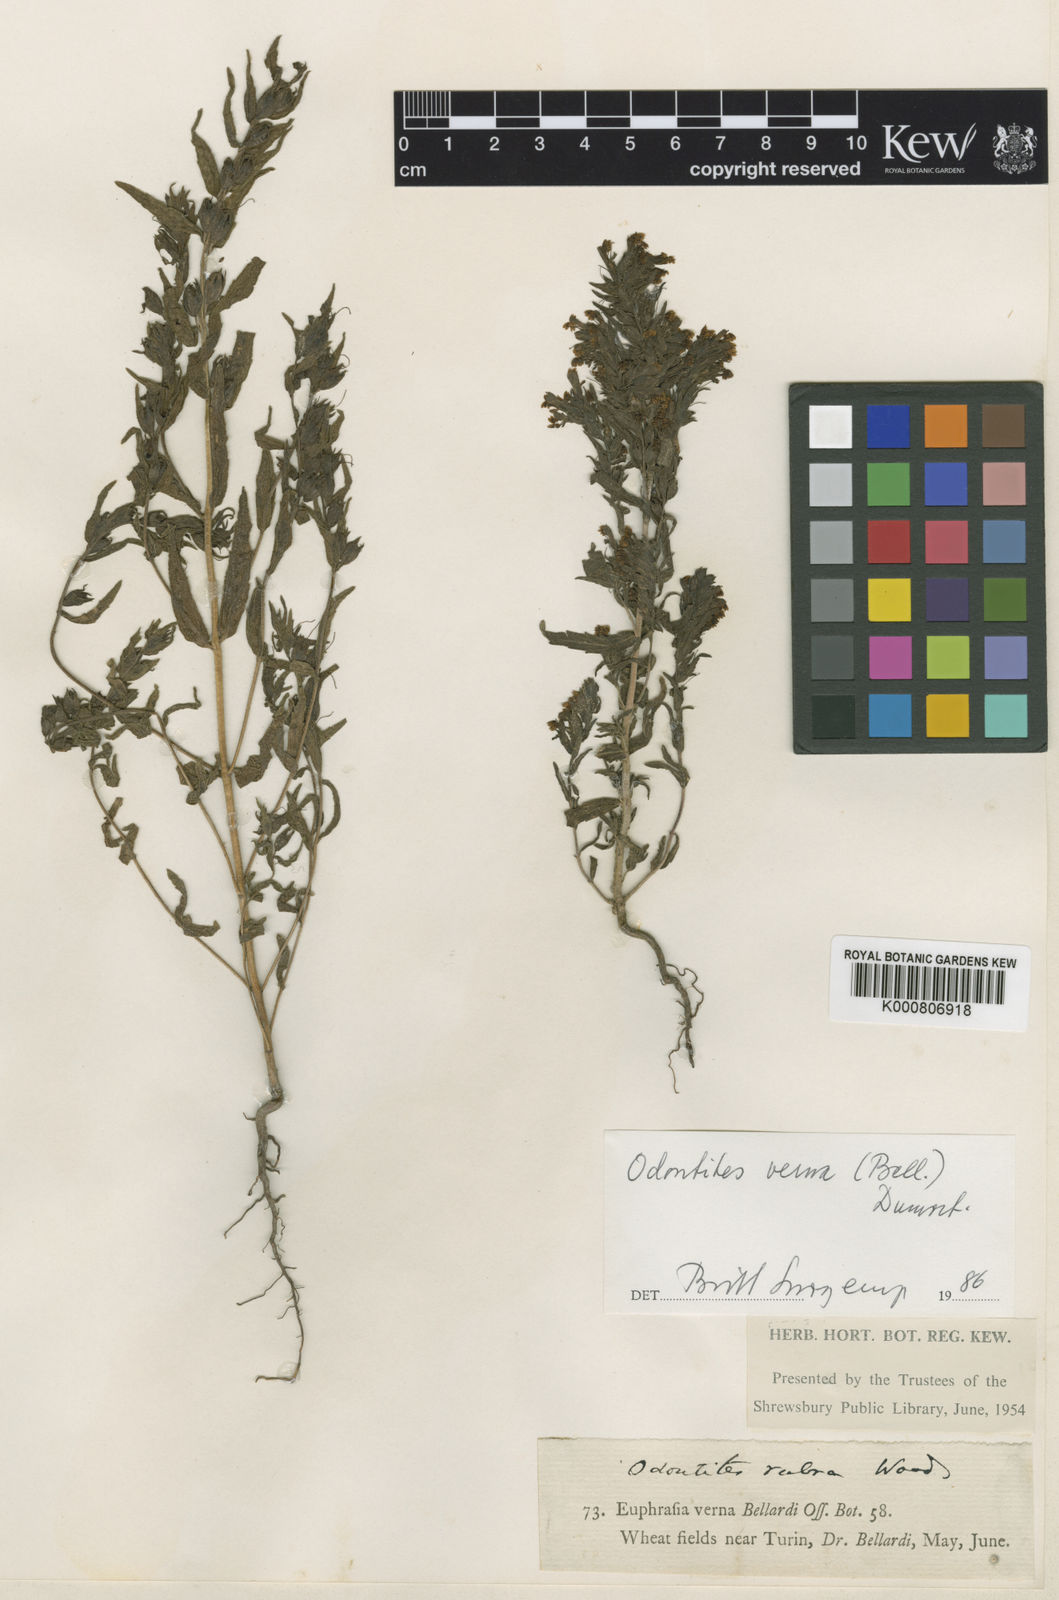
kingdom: Plantae
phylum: Tracheophyta
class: Magnoliopsida
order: Lamiales
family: Orobanchaceae
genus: Odontites
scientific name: Odontites vernus
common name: Red bartsia
